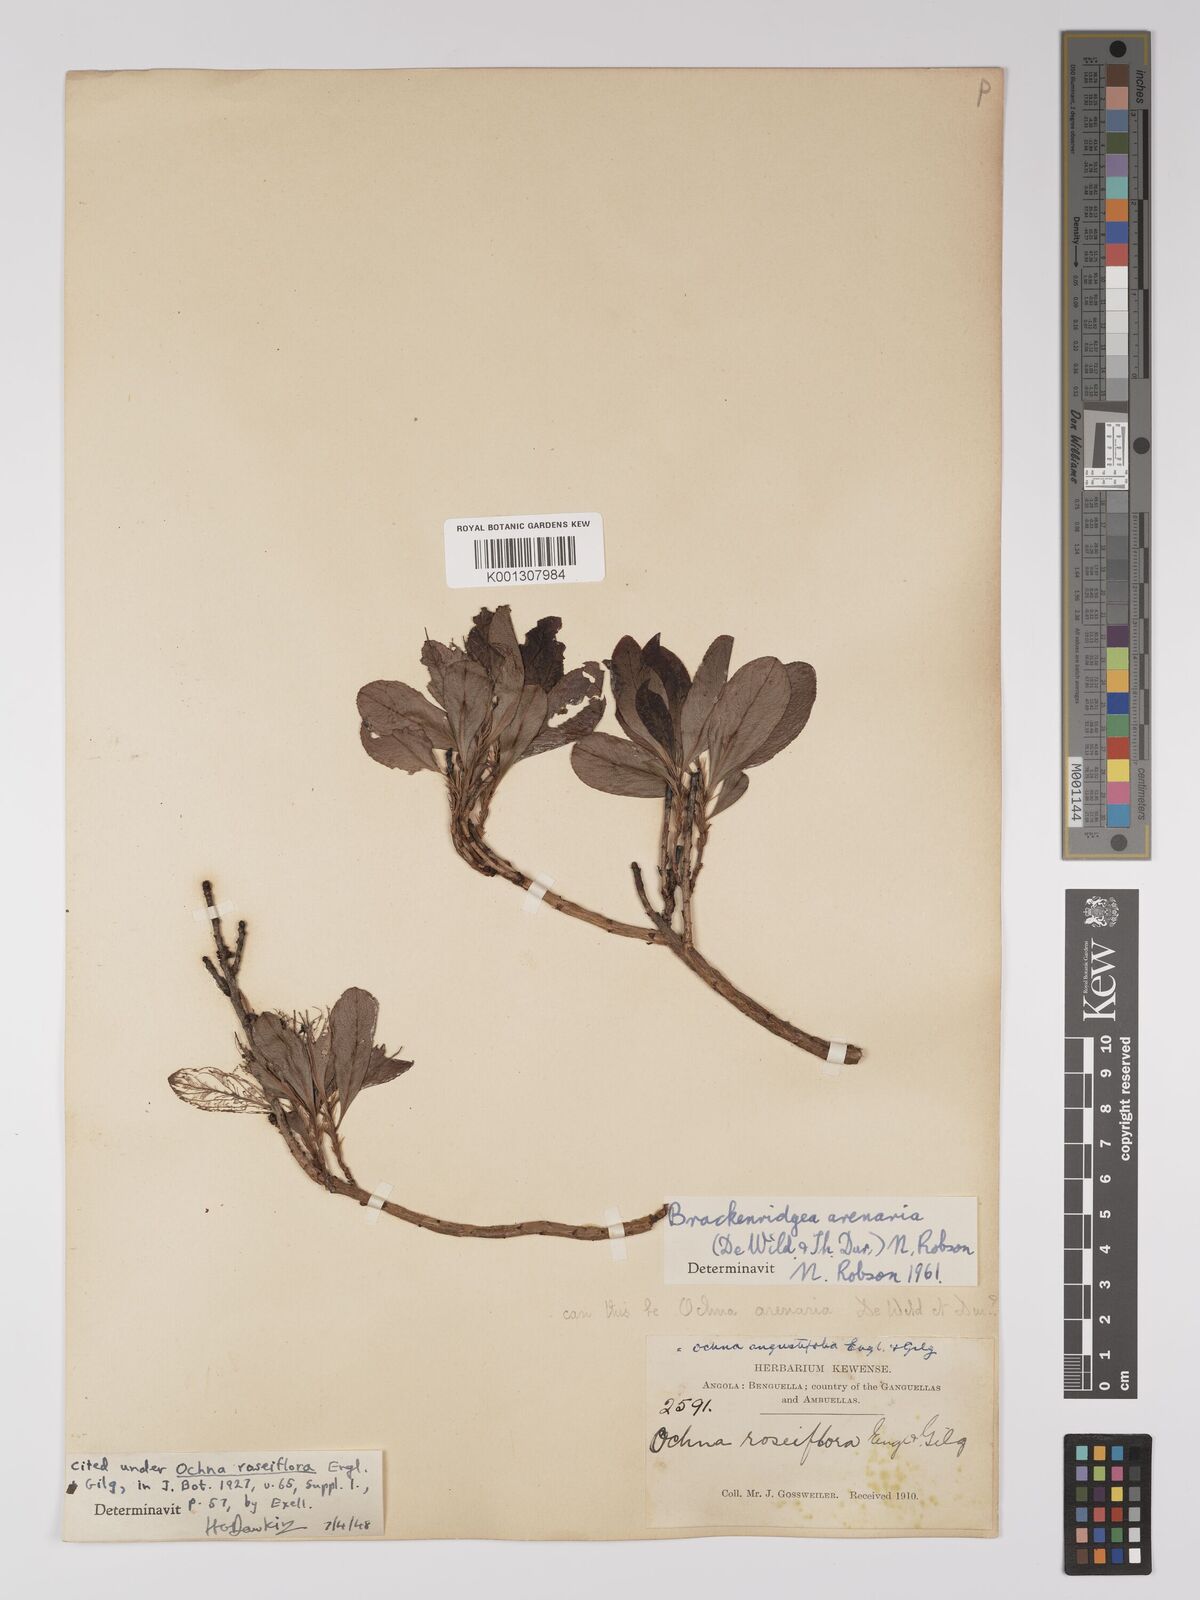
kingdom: Plantae
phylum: Tracheophyta
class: Magnoliopsida
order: Malpighiales
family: Ochnaceae
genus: Brackenridgea
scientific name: Brackenridgea
